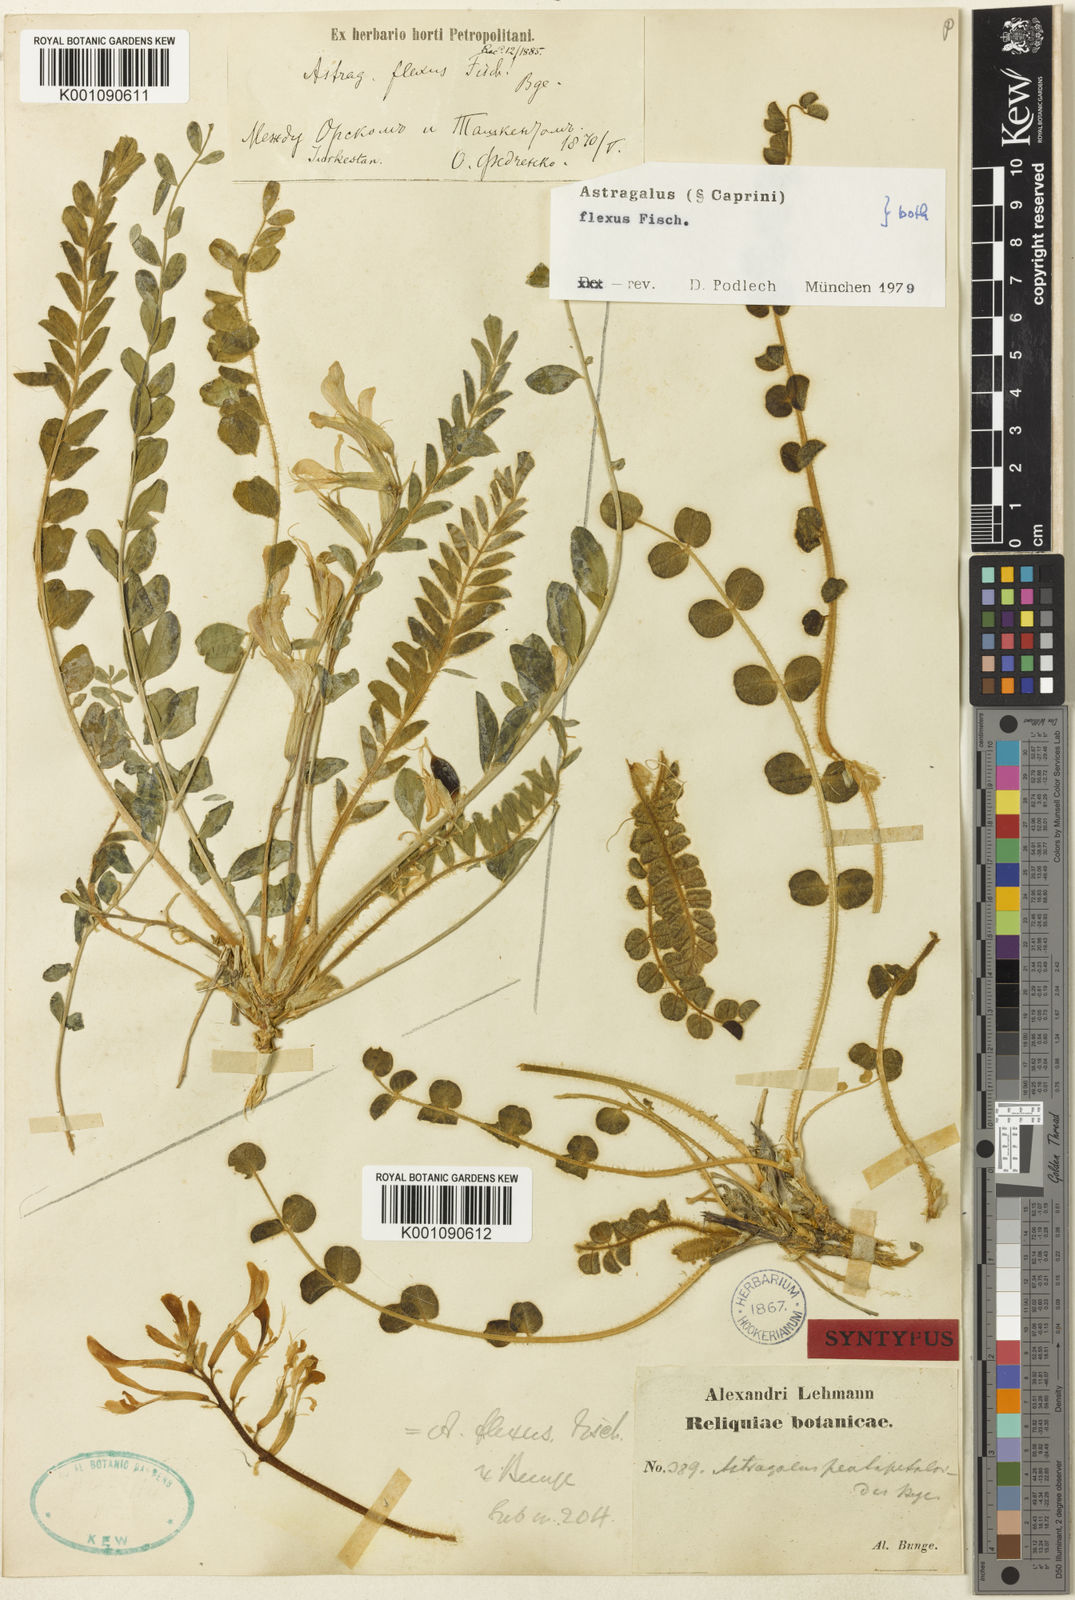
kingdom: Plantae
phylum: Tracheophyta
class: Magnoliopsida
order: Fabales
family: Fabaceae
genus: Astragalus
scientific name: Astragalus
